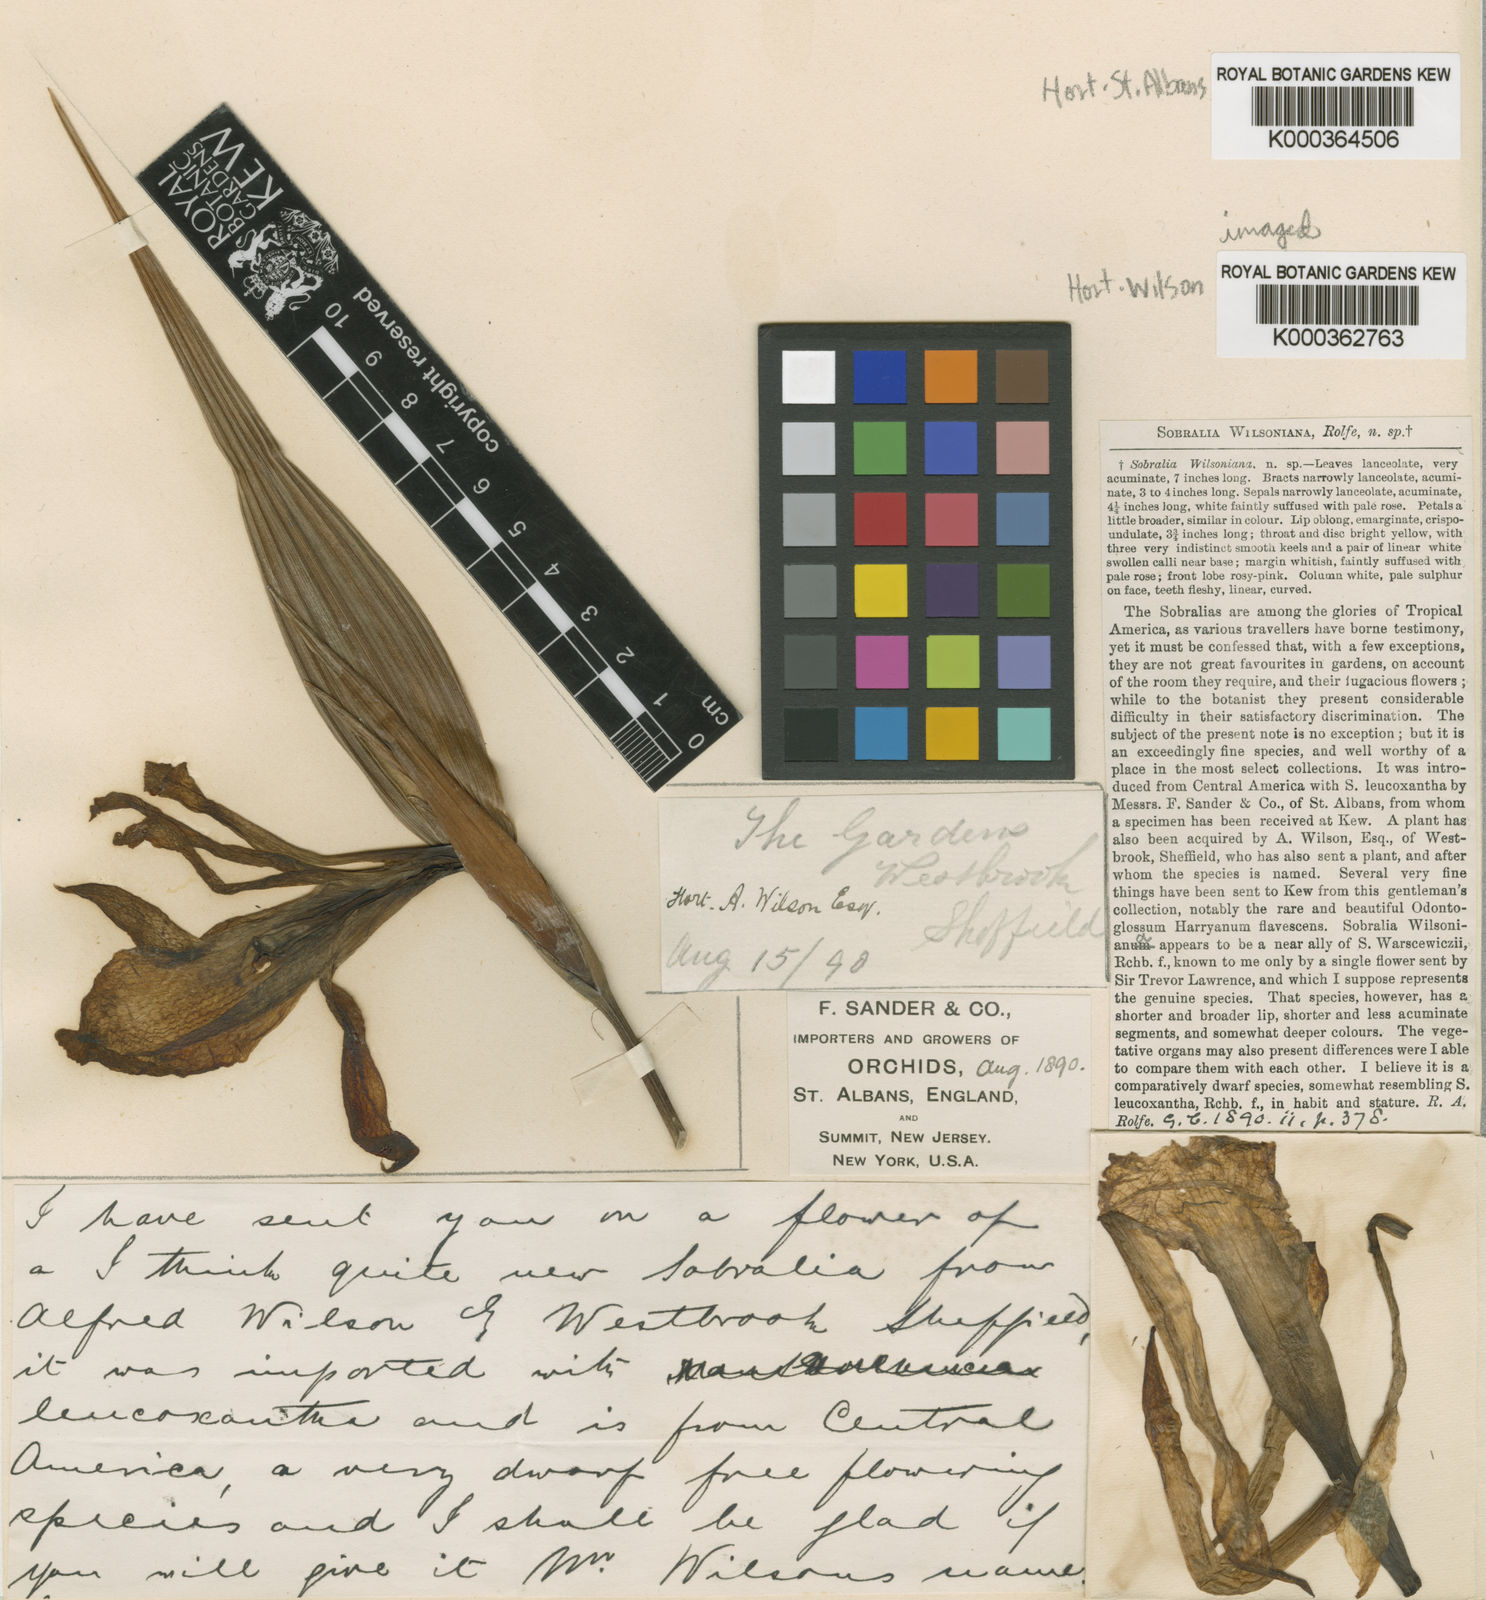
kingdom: Plantae
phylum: Tracheophyta
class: Liliopsida
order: Asparagales
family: Orchidaceae
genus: Sobralia
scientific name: Sobralia wilsoniana
